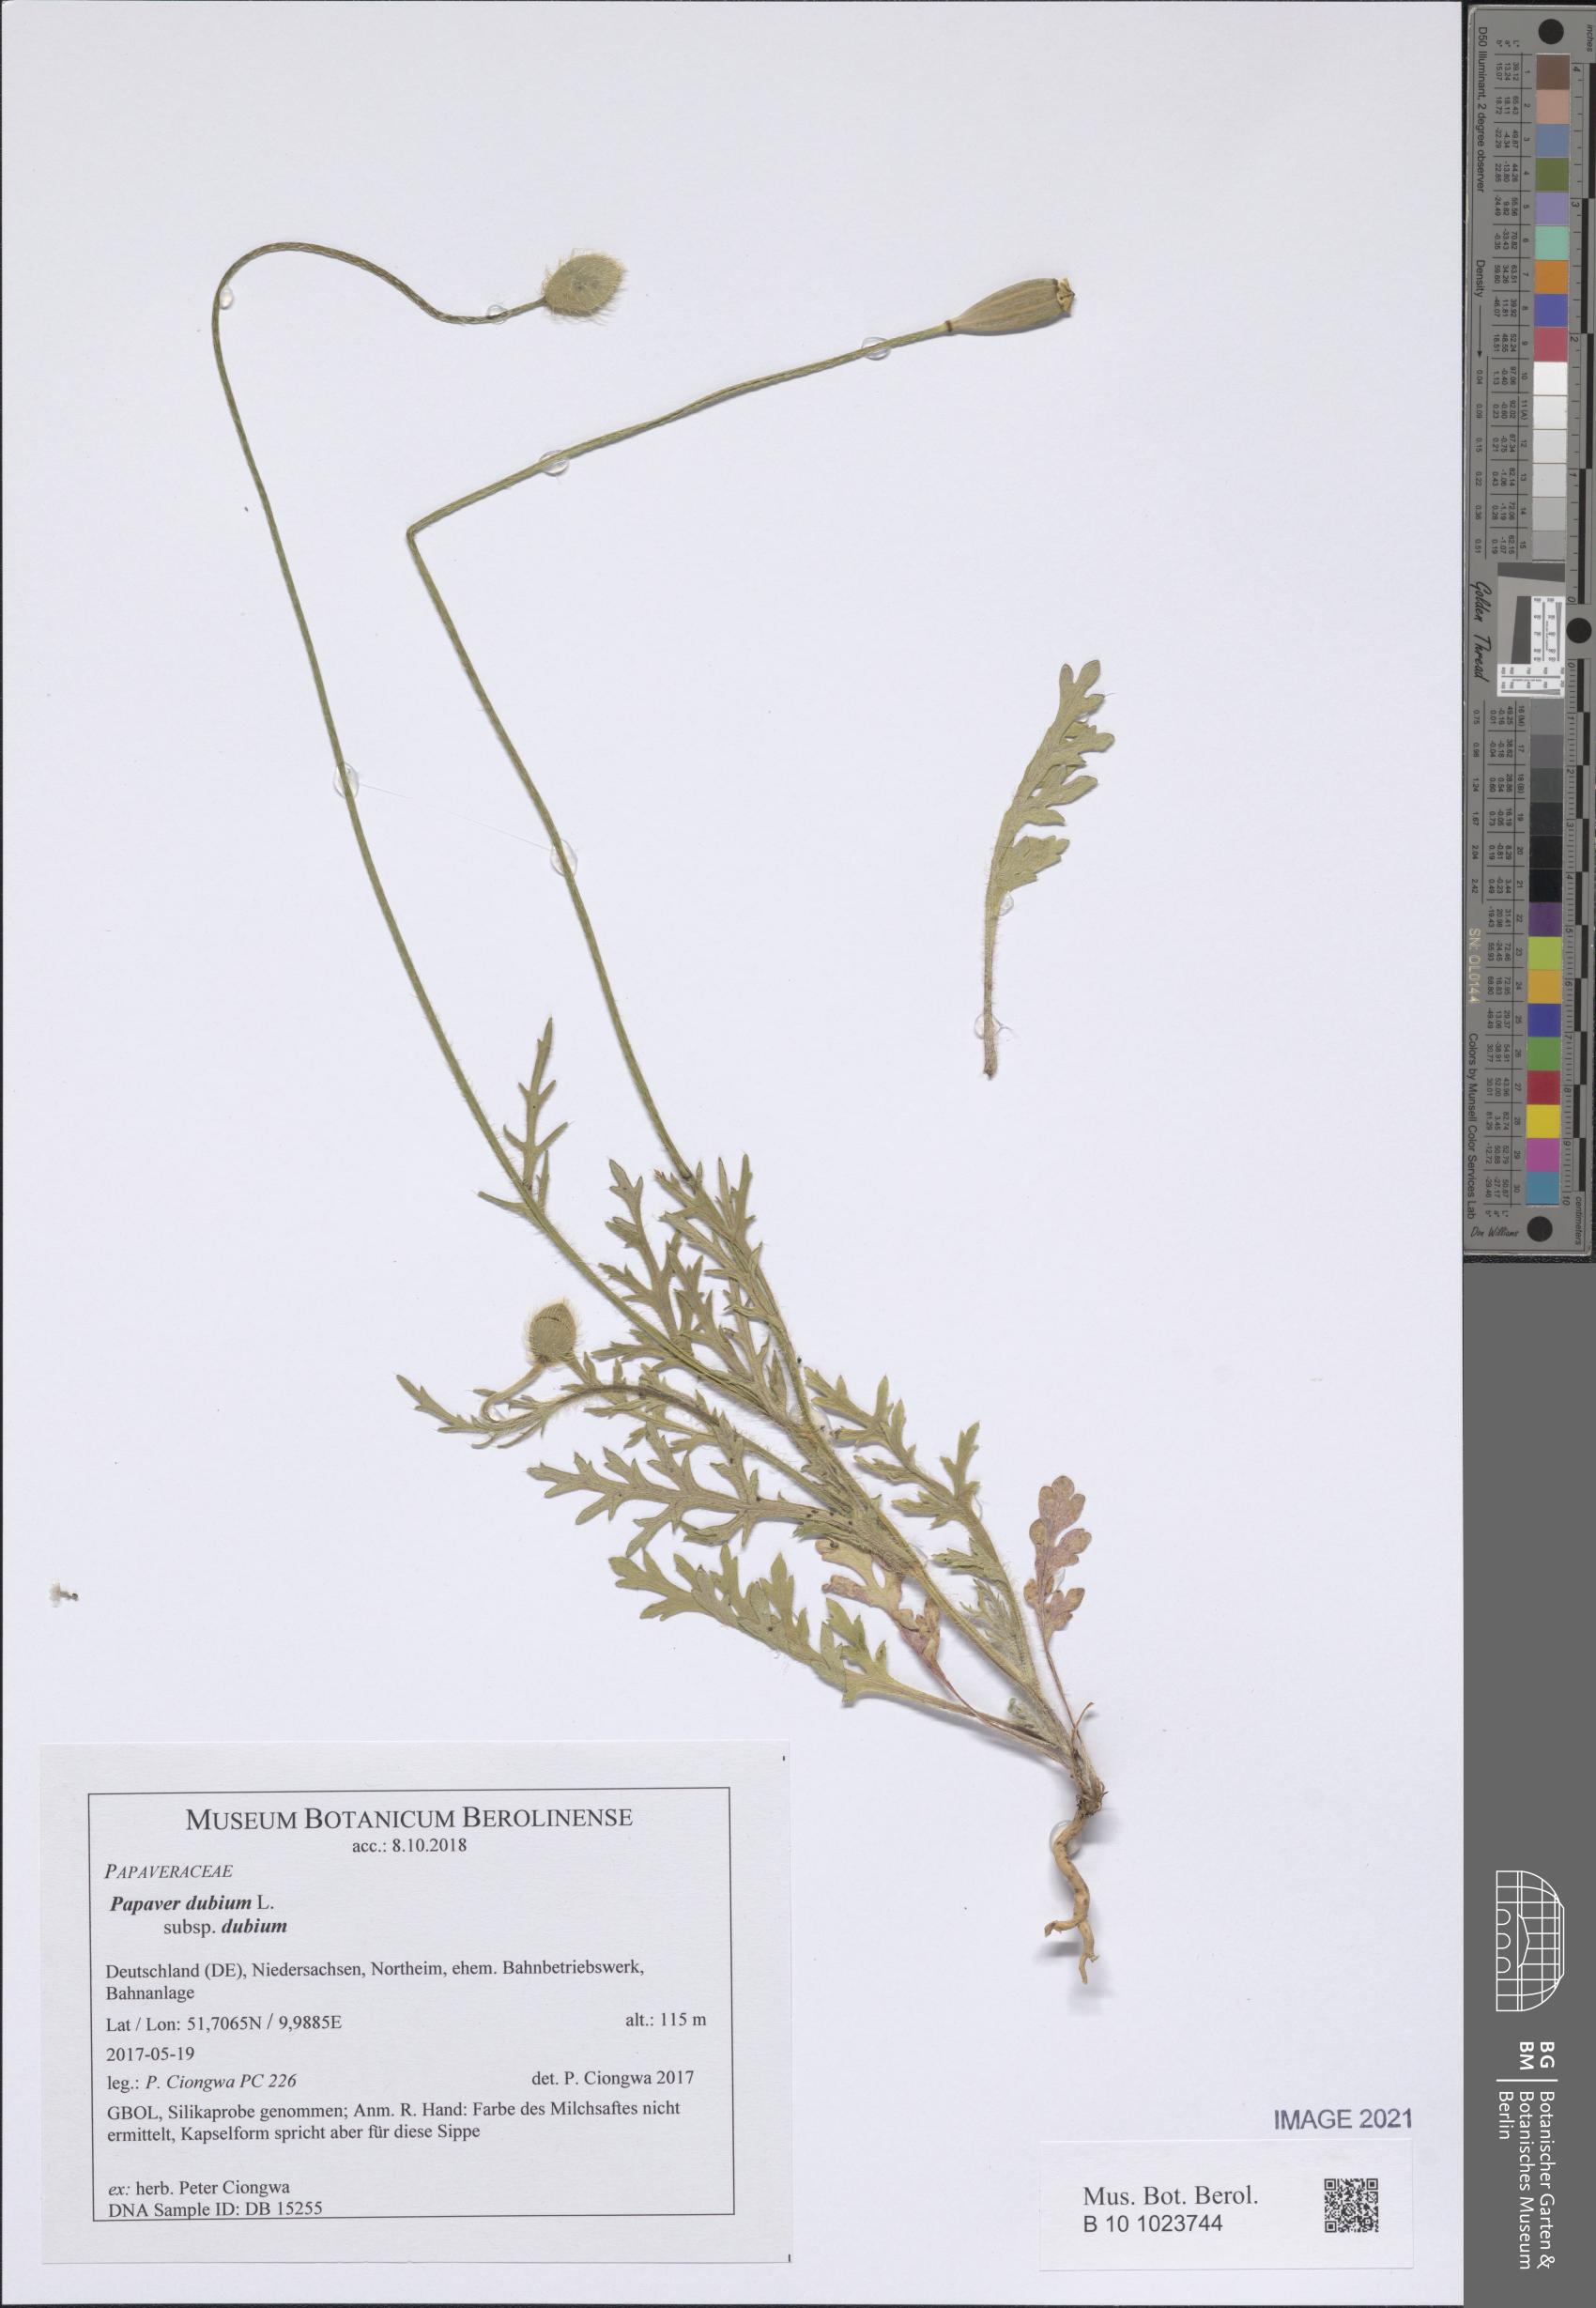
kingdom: Plantae
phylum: Tracheophyta
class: Magnoliopsida
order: Ranunculales
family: Papaveraceae
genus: Papaver
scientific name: Papaver dubium
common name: Long-headed poppy
